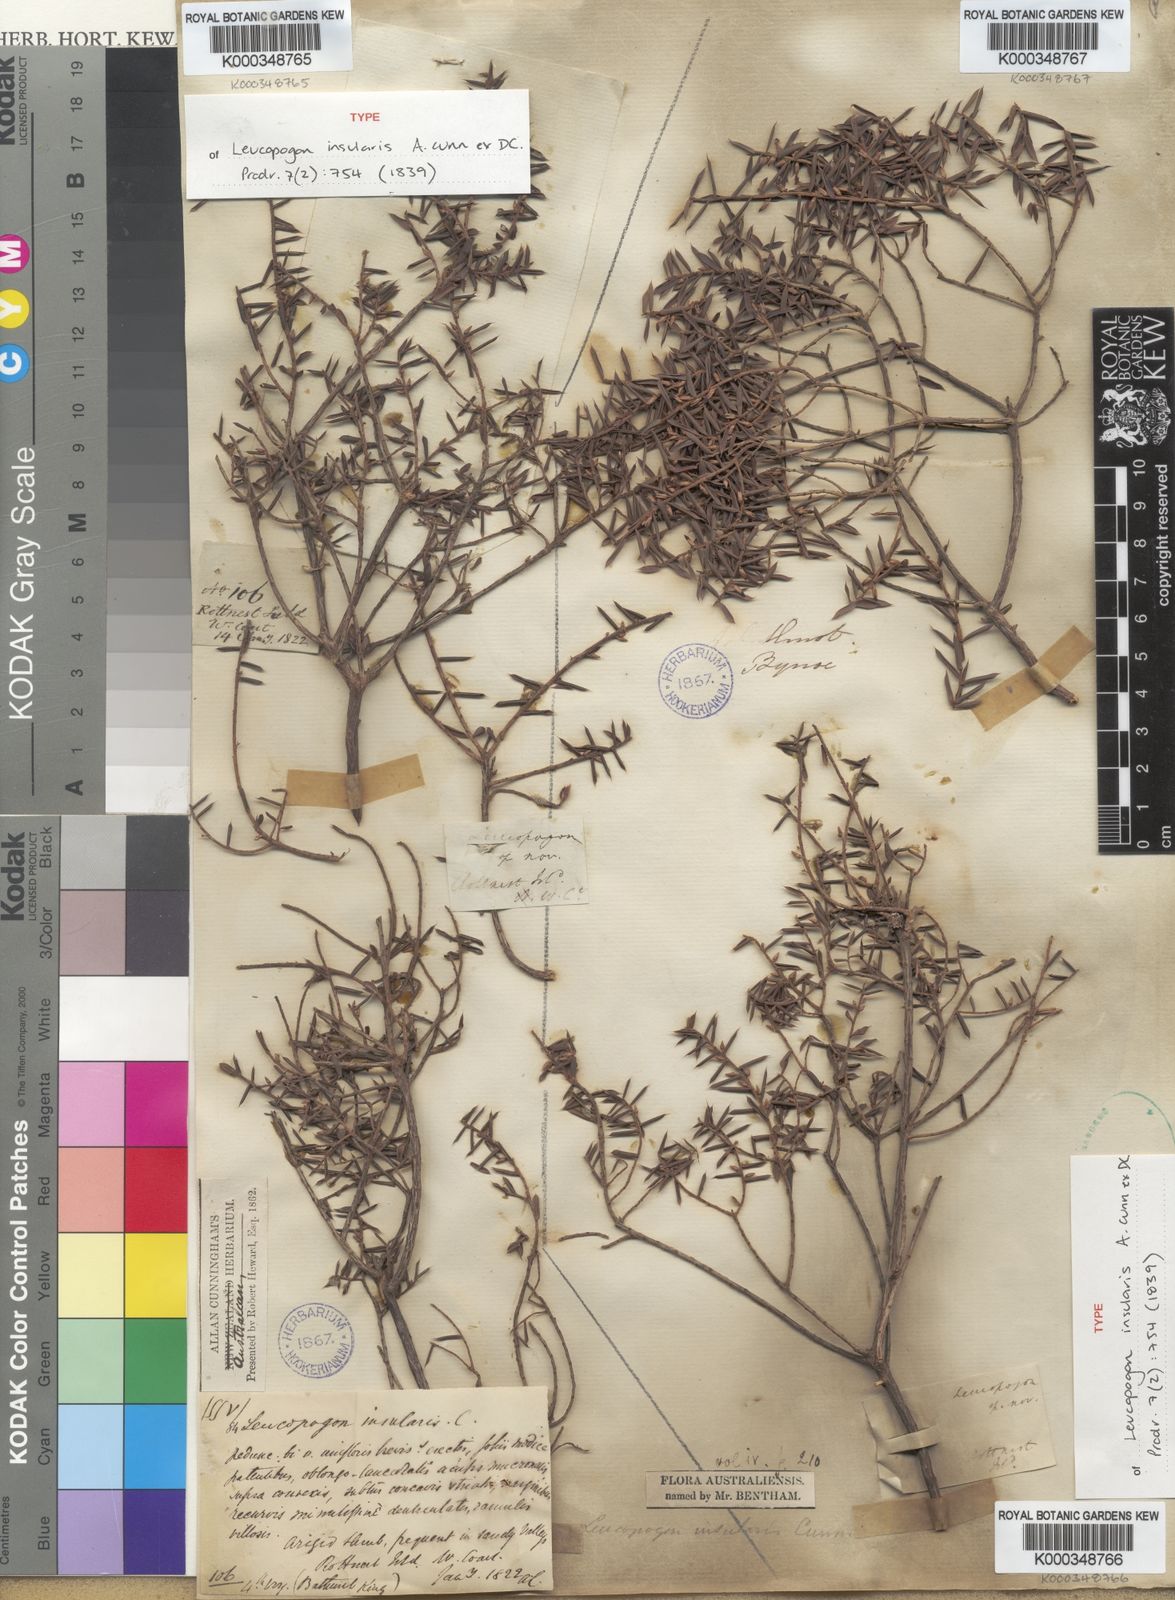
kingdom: Plantae
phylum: Tracheophyta
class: Magnoliopsida
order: Ericales
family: Ericaceae
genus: Styphelia
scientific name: Styphelia insularis
